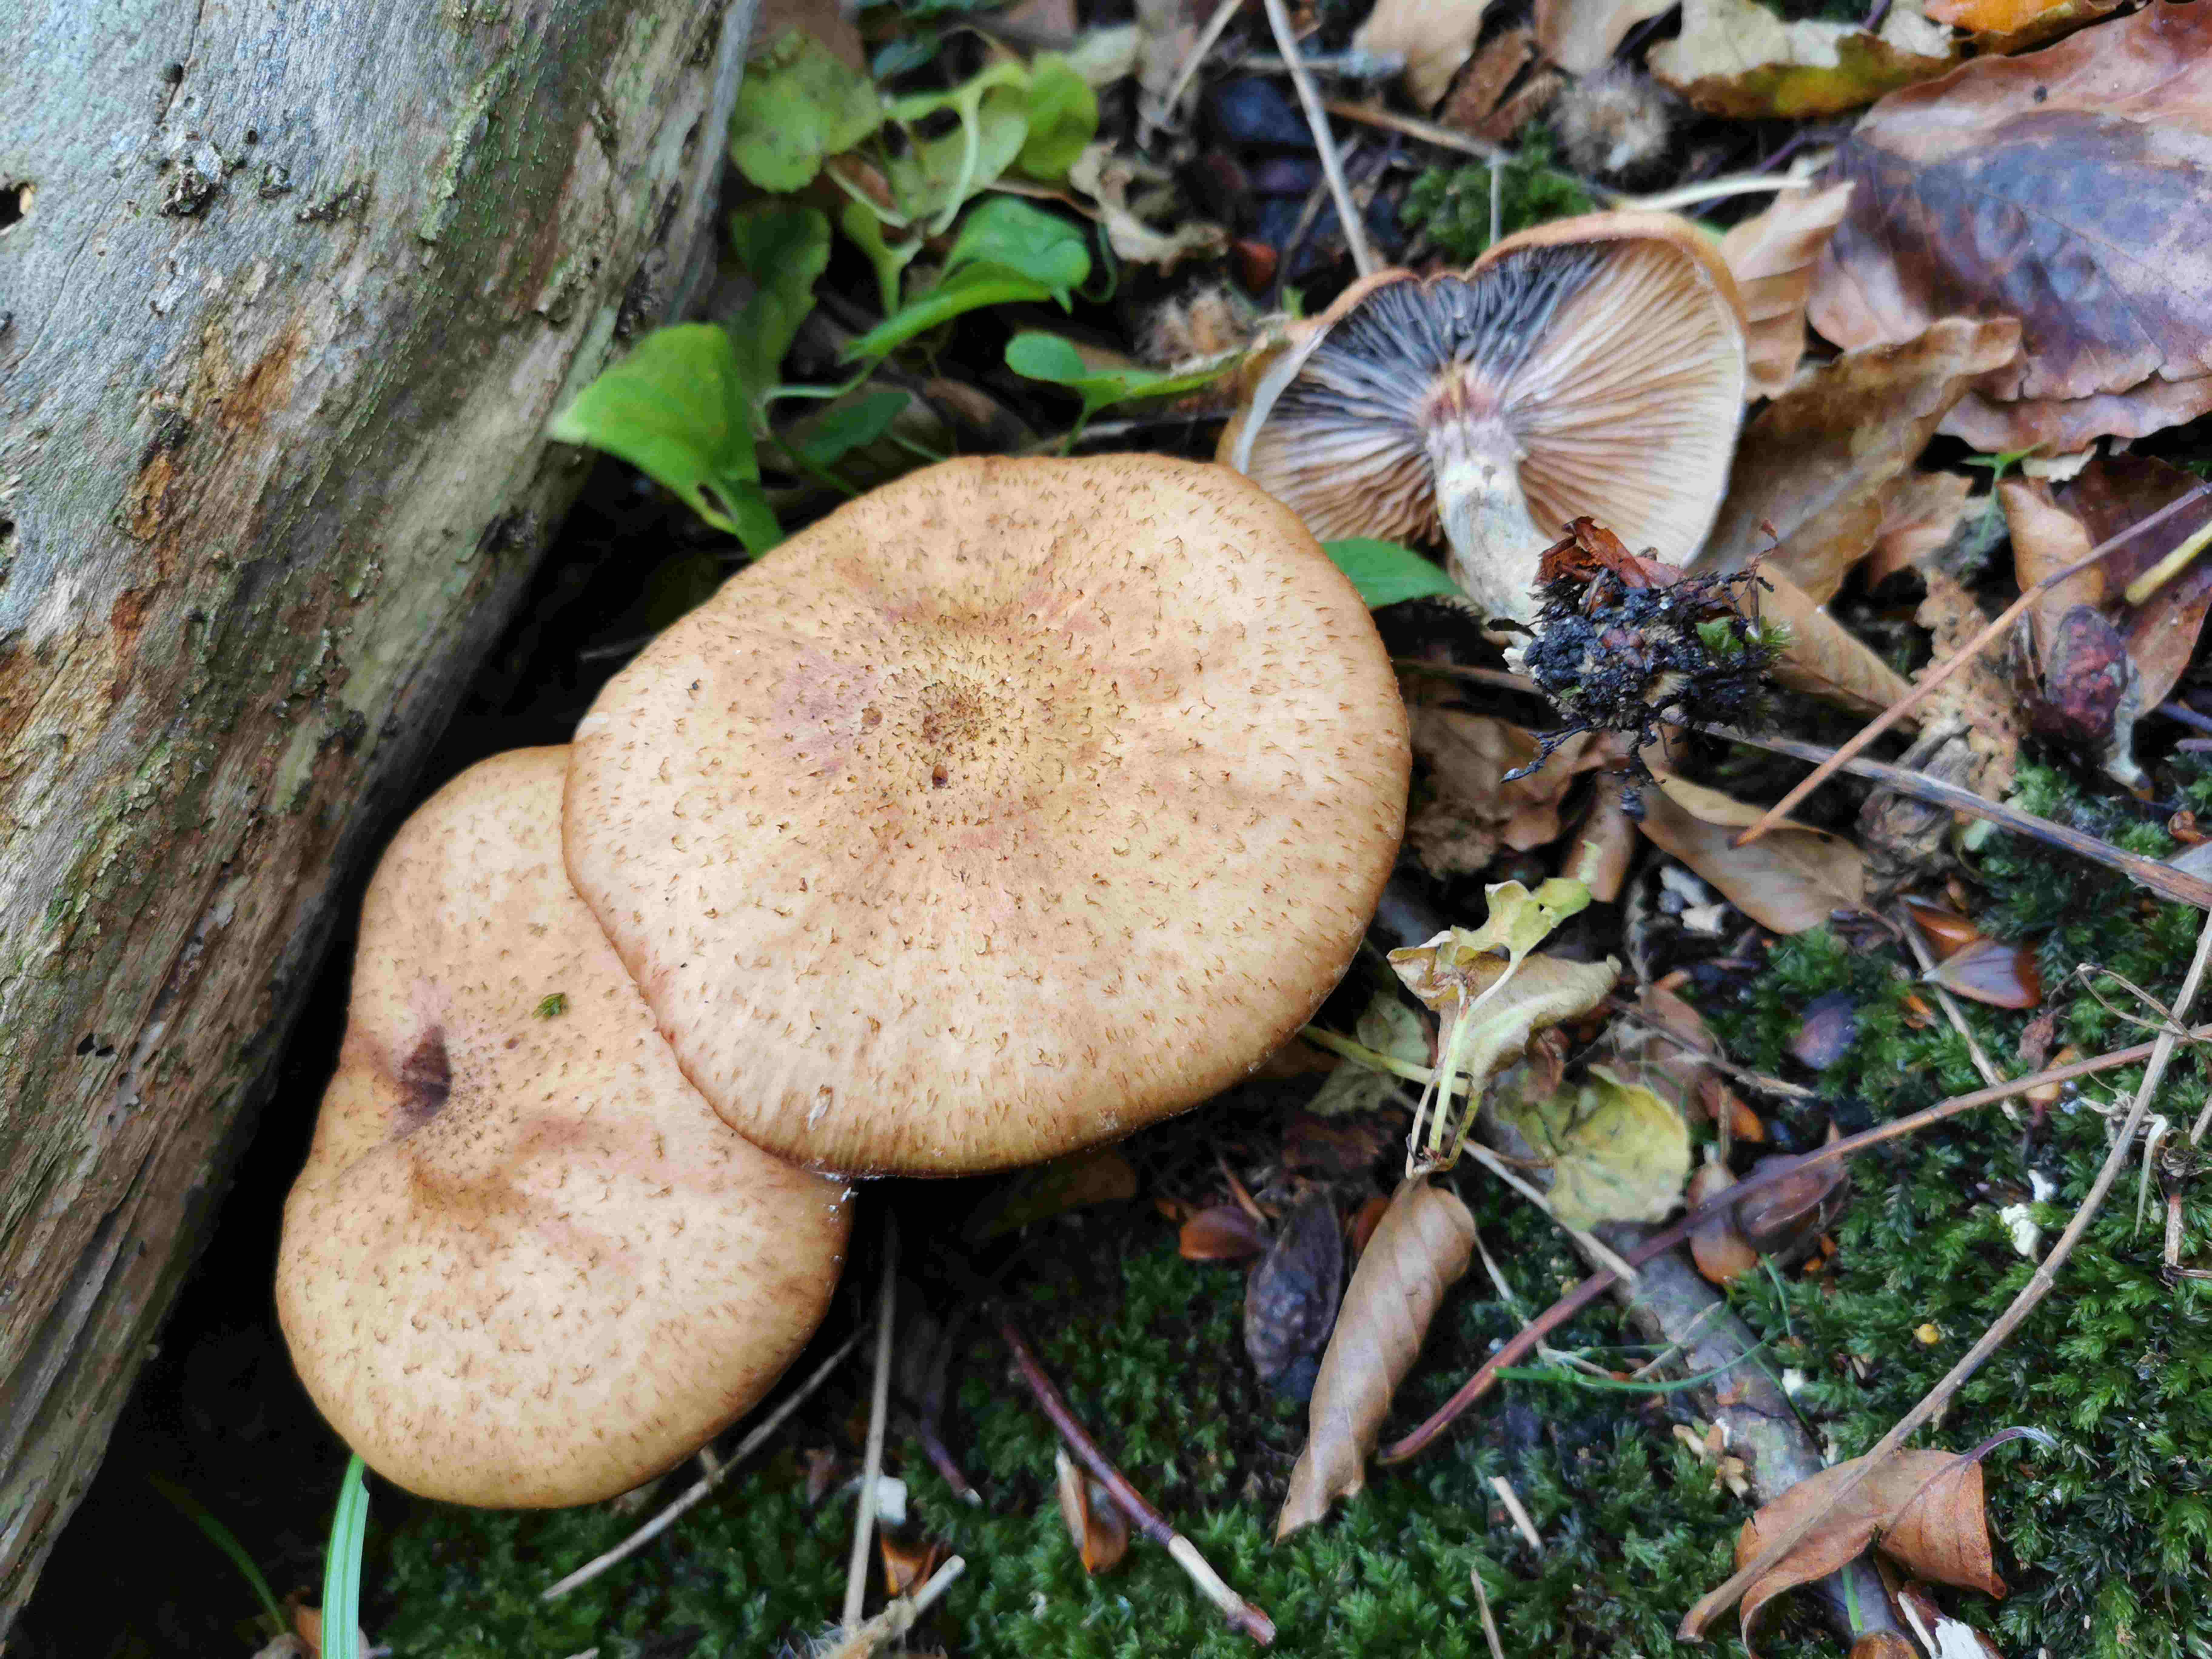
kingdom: Fungi
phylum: Basidiomycota
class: Agaricomycetes
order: Agaricales
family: Physalacriaceae
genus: Armillaria
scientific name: Armillaria
